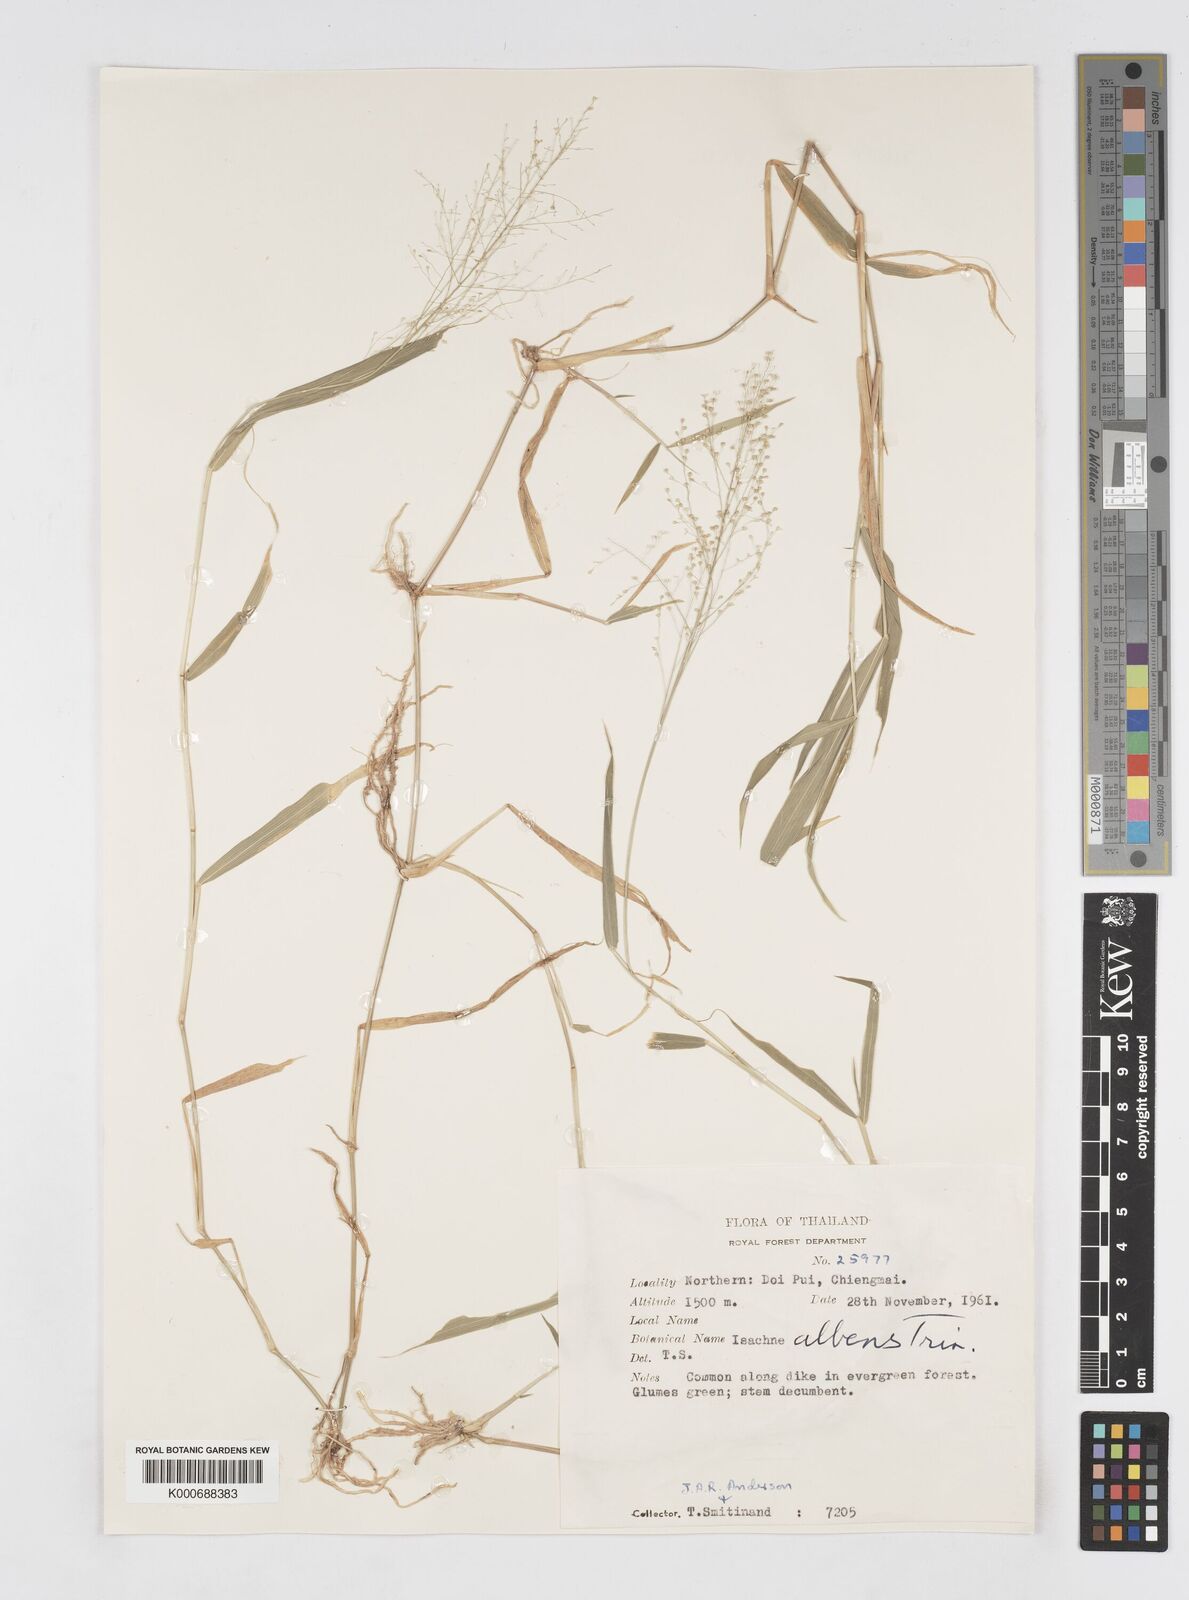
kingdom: Plantae
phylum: Tracheophyta
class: Liliopsida
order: Poales
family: Poaceae
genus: Isachne
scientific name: Isachne albens
